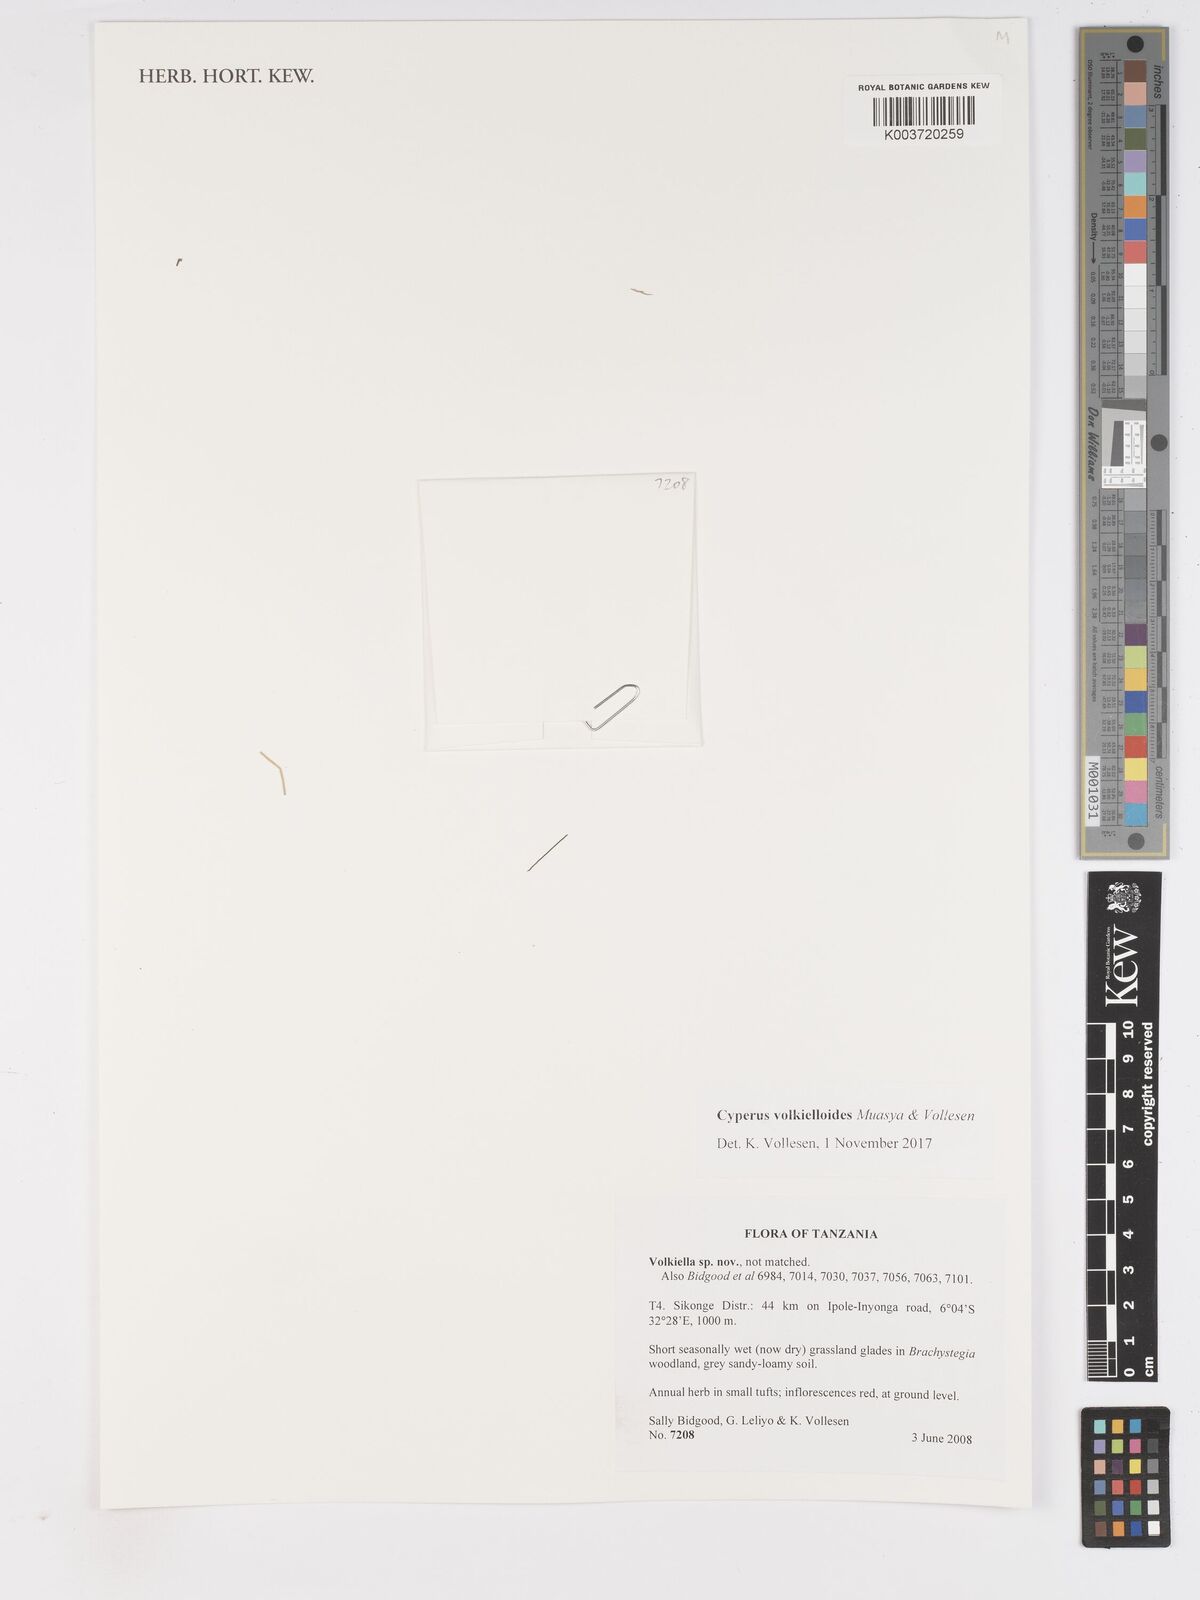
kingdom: Plantae
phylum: Tracheophyta
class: Liliopsida
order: Poales
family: Cyperaceae
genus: Cyperus
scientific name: Cyperus volkielloides
